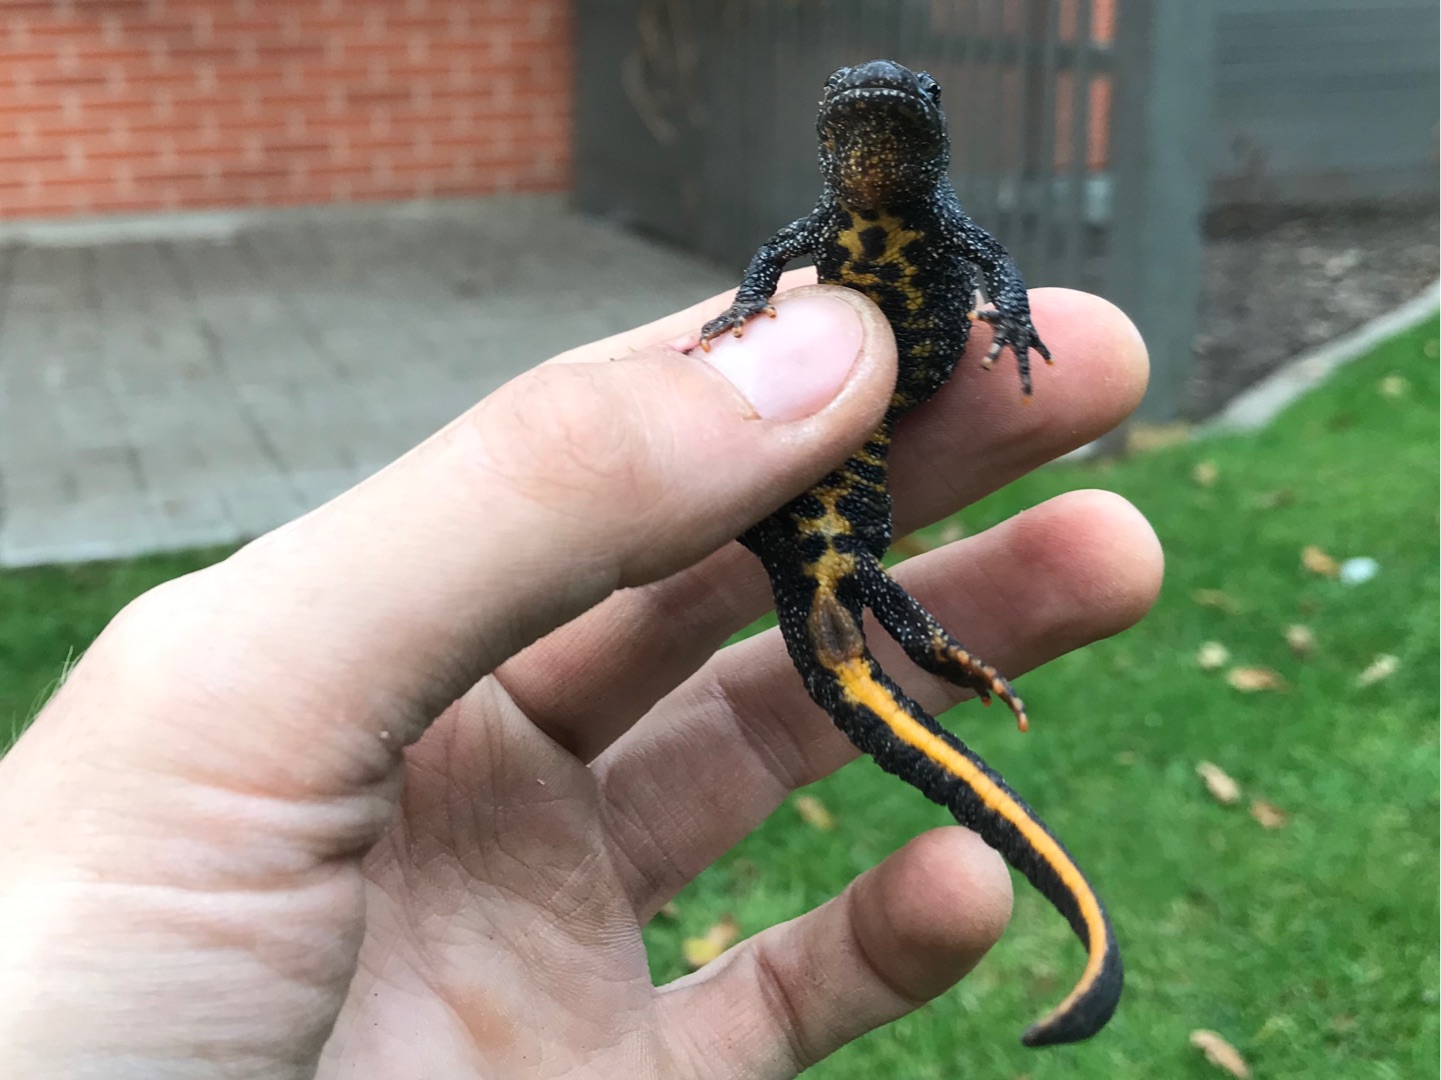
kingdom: Animalia
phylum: Chordata
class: Amphibia
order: Caudata
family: Salamandridae
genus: Triturus
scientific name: Triturus cristatus
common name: Stor vandsalamander
